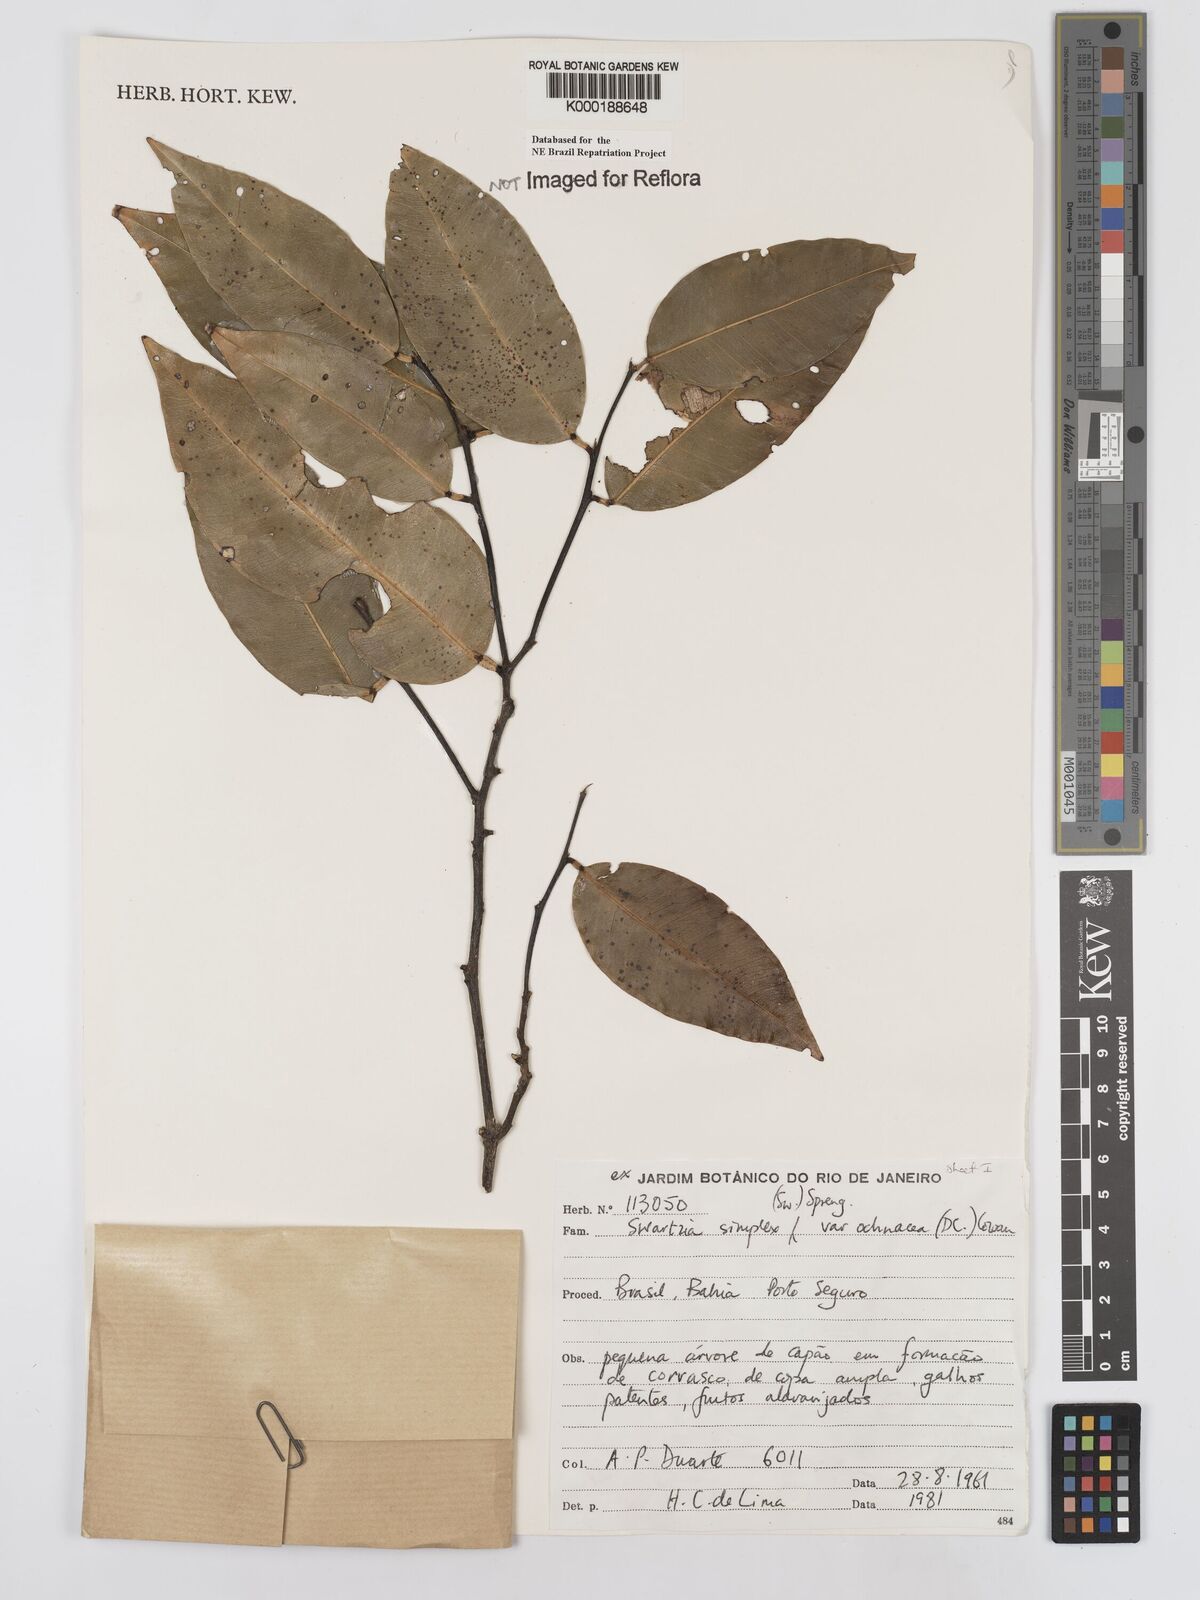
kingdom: Plantae
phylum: Tracheophyta
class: Magnoliopsida
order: Fabales
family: Fabaceae
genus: Swartzia
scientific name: Swartzia simplex
